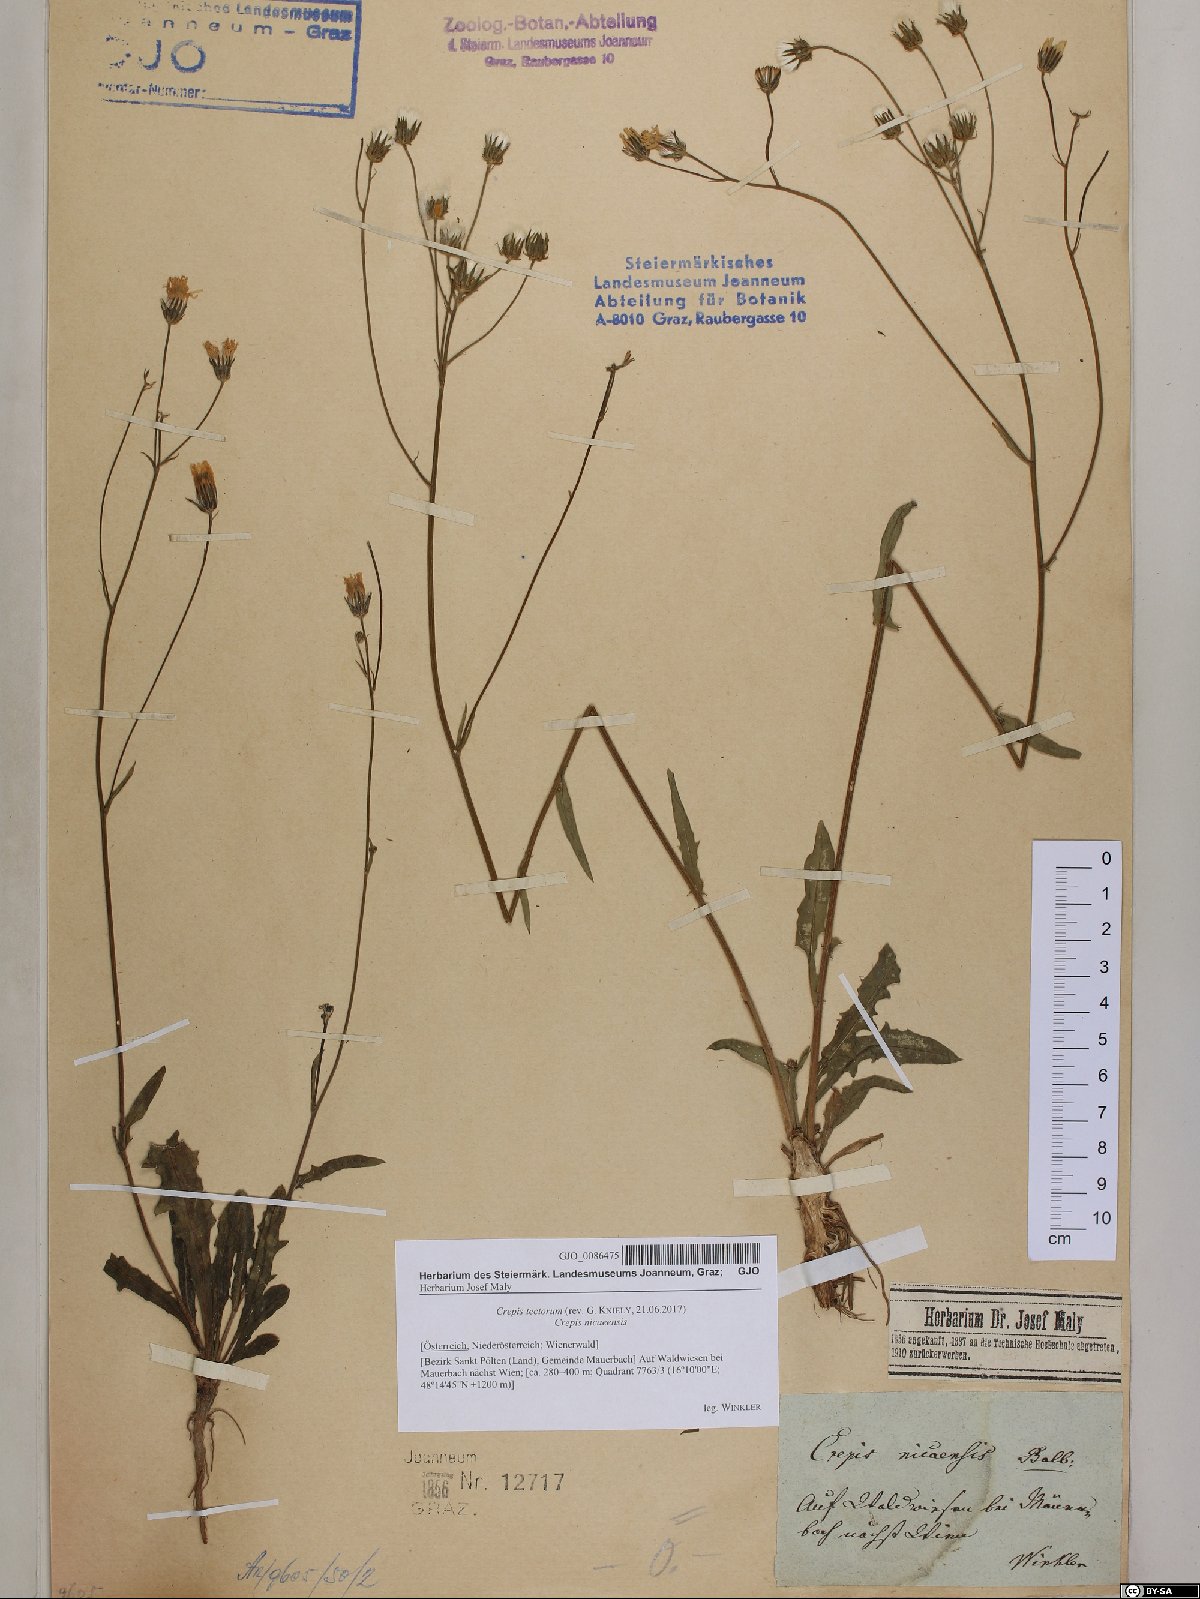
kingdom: Plantae
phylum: Tracheophyta
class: Magnoliopsida
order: Asterales
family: Asteraceae
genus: Crepis
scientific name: Crepis tectorum
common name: Narrow-leaved hawk's-beard
